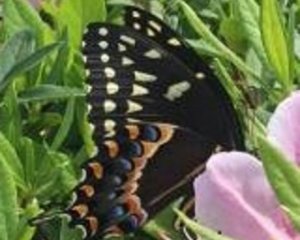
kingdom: Animalia
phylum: Arthropoda
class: Insecta
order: Lepidoptera
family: Papilionidae
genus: Pterourus
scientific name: Pterourus palamedes
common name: Palamedes Swallowtail
